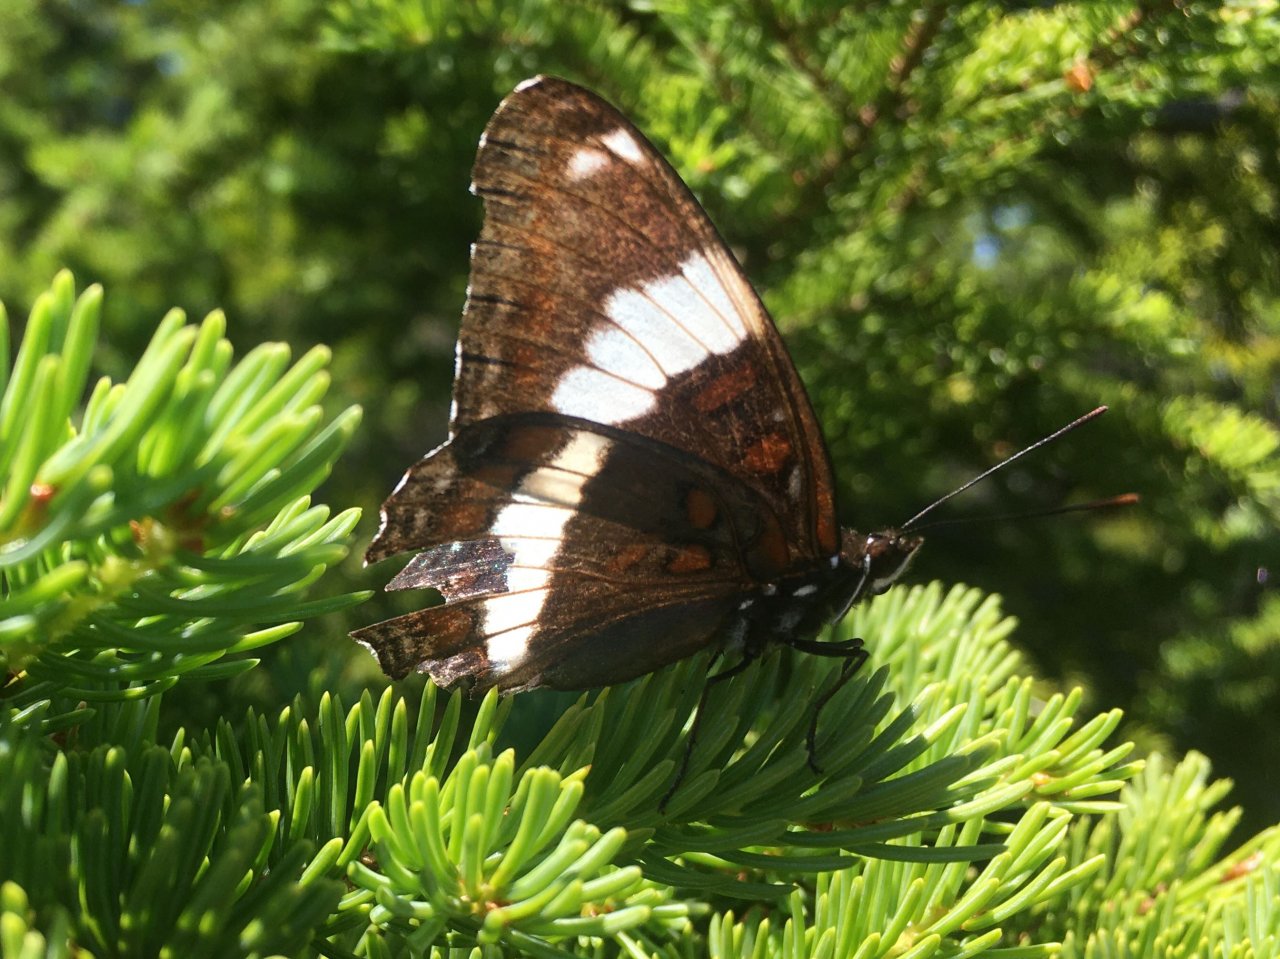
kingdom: Animalia
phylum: Arthropoda
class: Insecta
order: Lepidoptera
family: Nymphalidae
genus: Limenitis
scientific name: Limenitis arthemis
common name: Red-spotted Admiral
